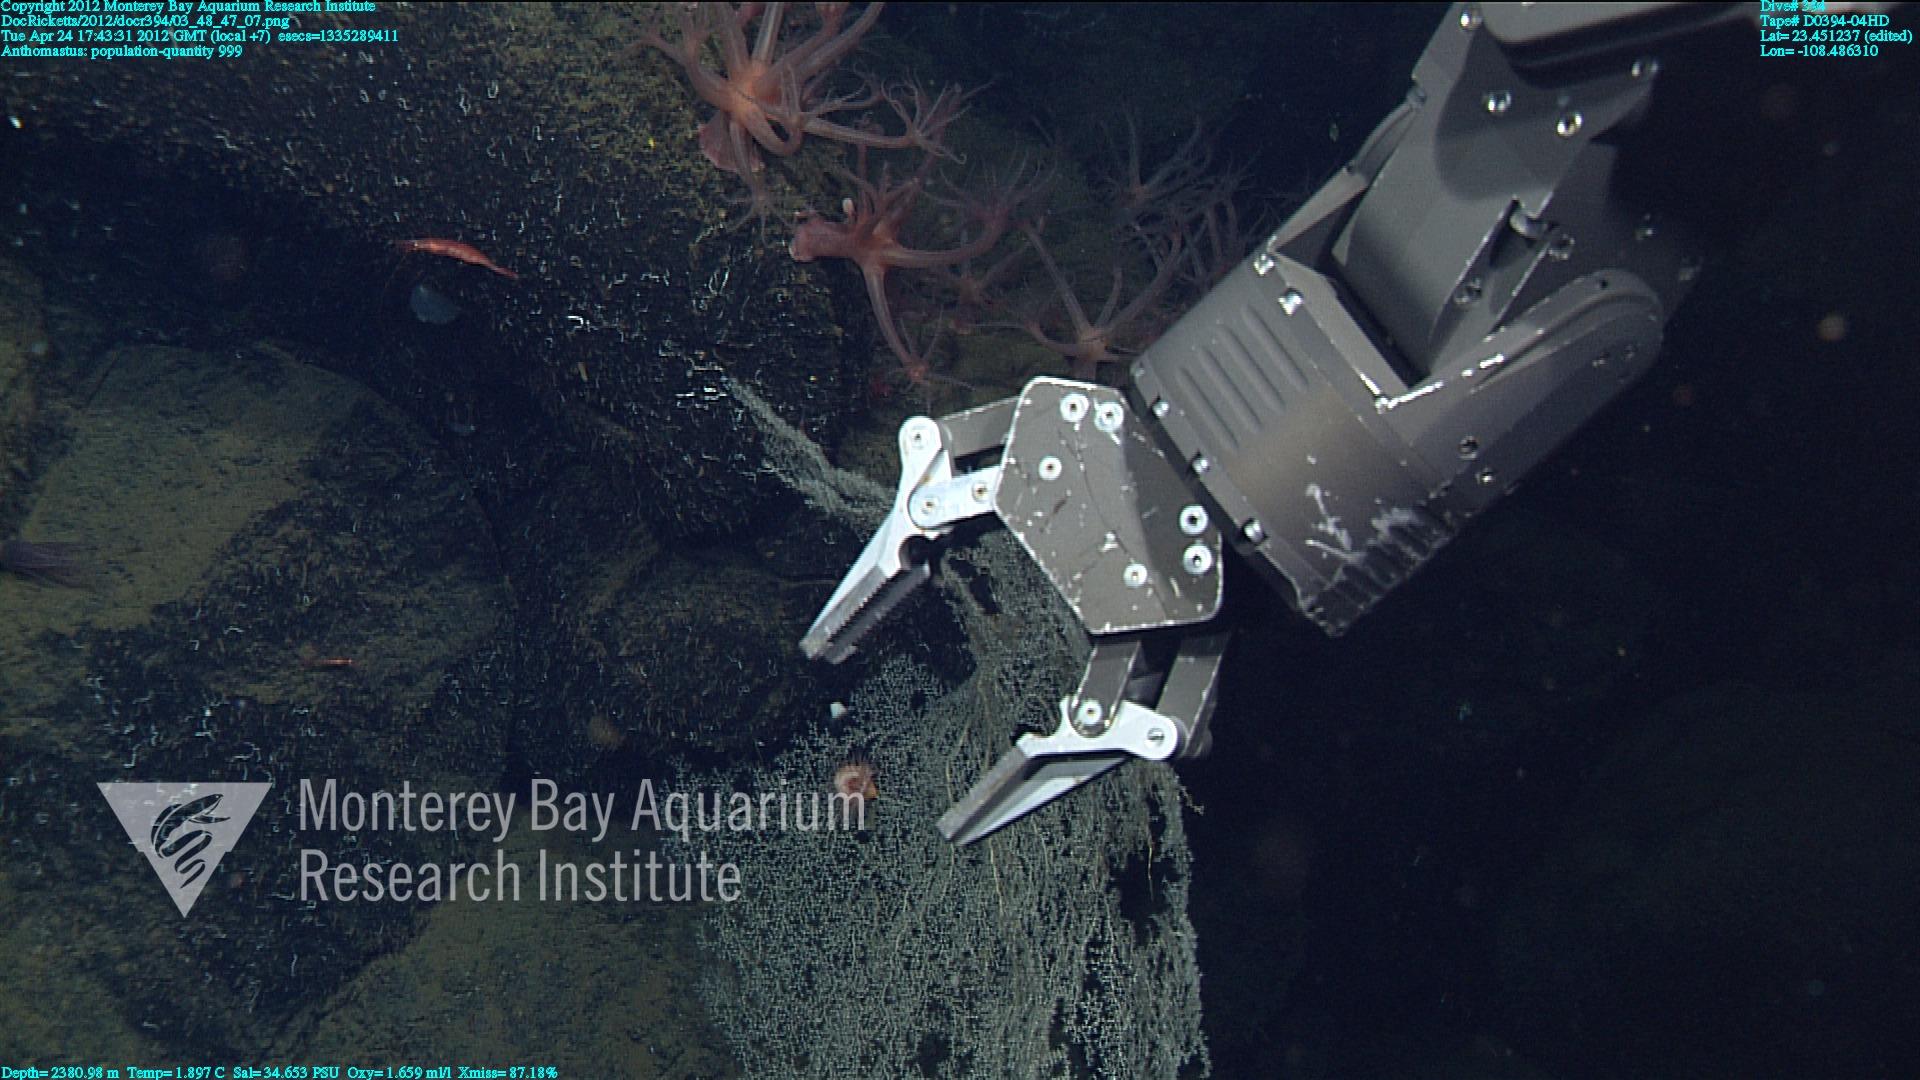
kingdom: Animalia
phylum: Cnidaria
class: Anthozoa
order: Scleralcyonacea
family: Coralliidae
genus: Heteropolypus
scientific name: Heteropolypus
